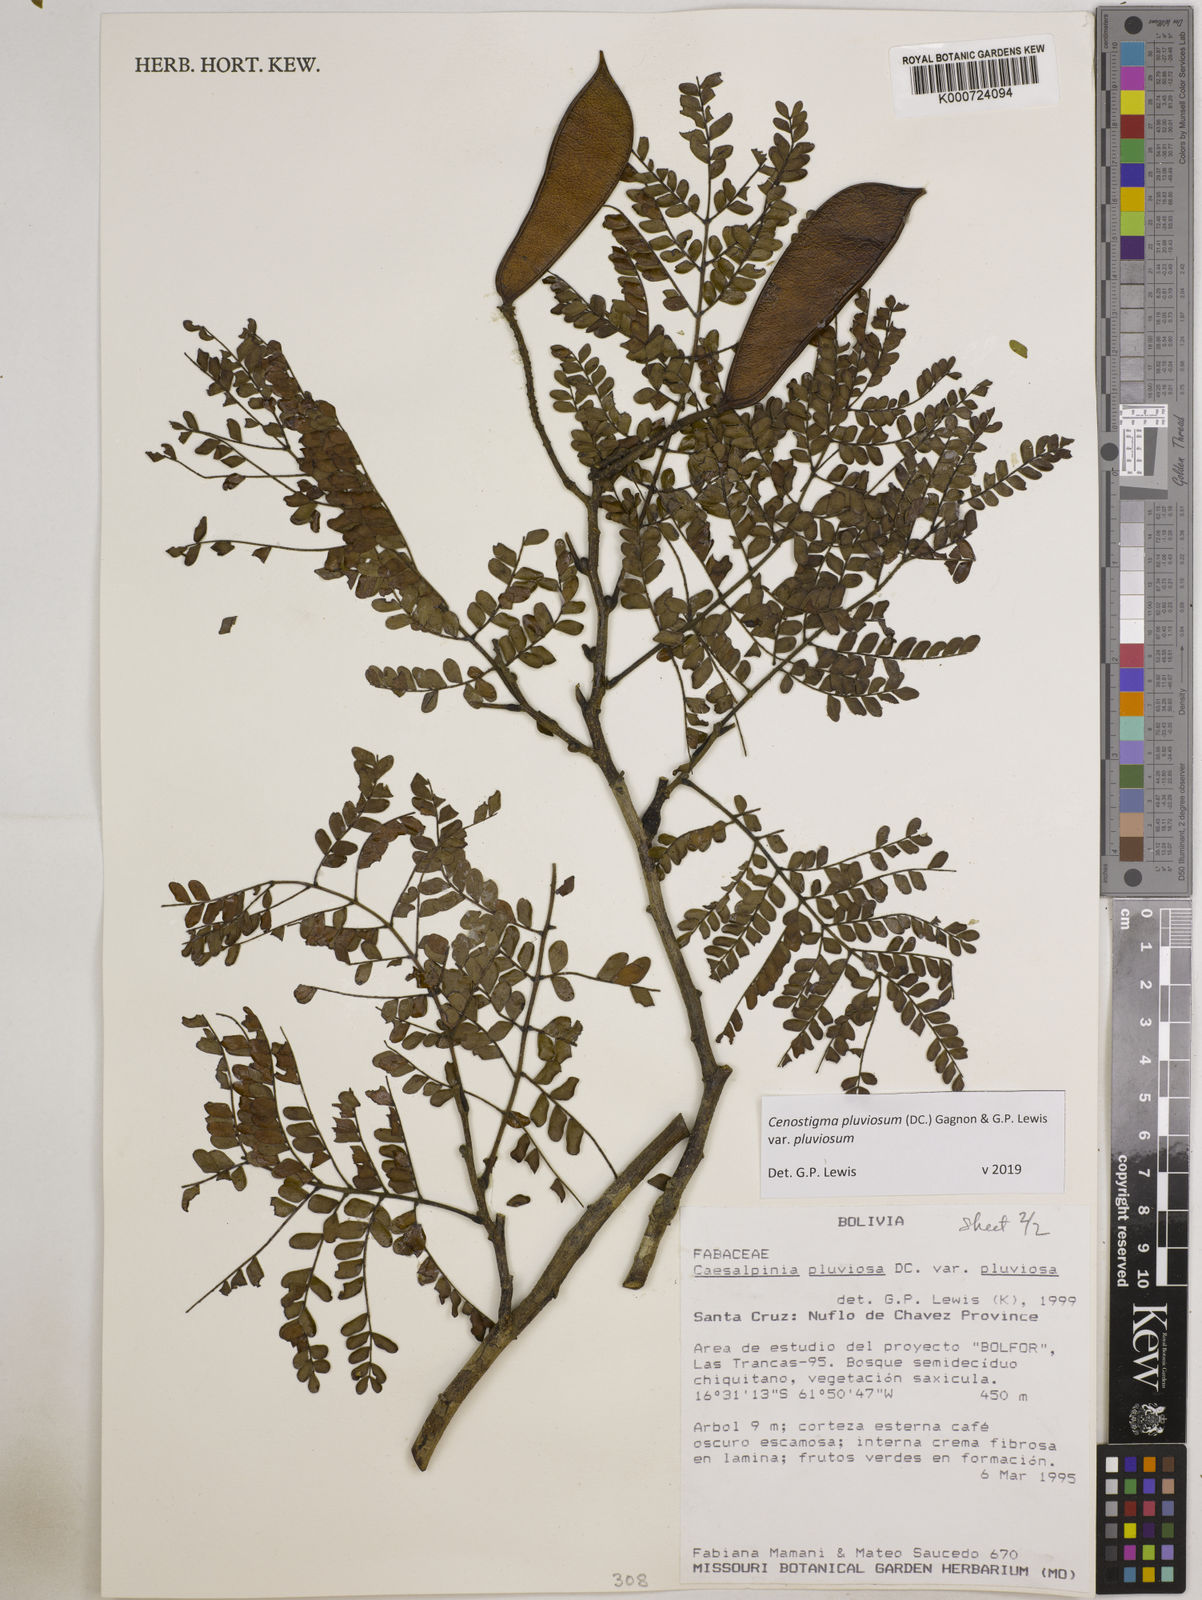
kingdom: Plantae
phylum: Tracheophyta
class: Magnoliopsida
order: Fabales
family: Fabaceae
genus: Cenostigma
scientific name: Cenostigma pluviosum
